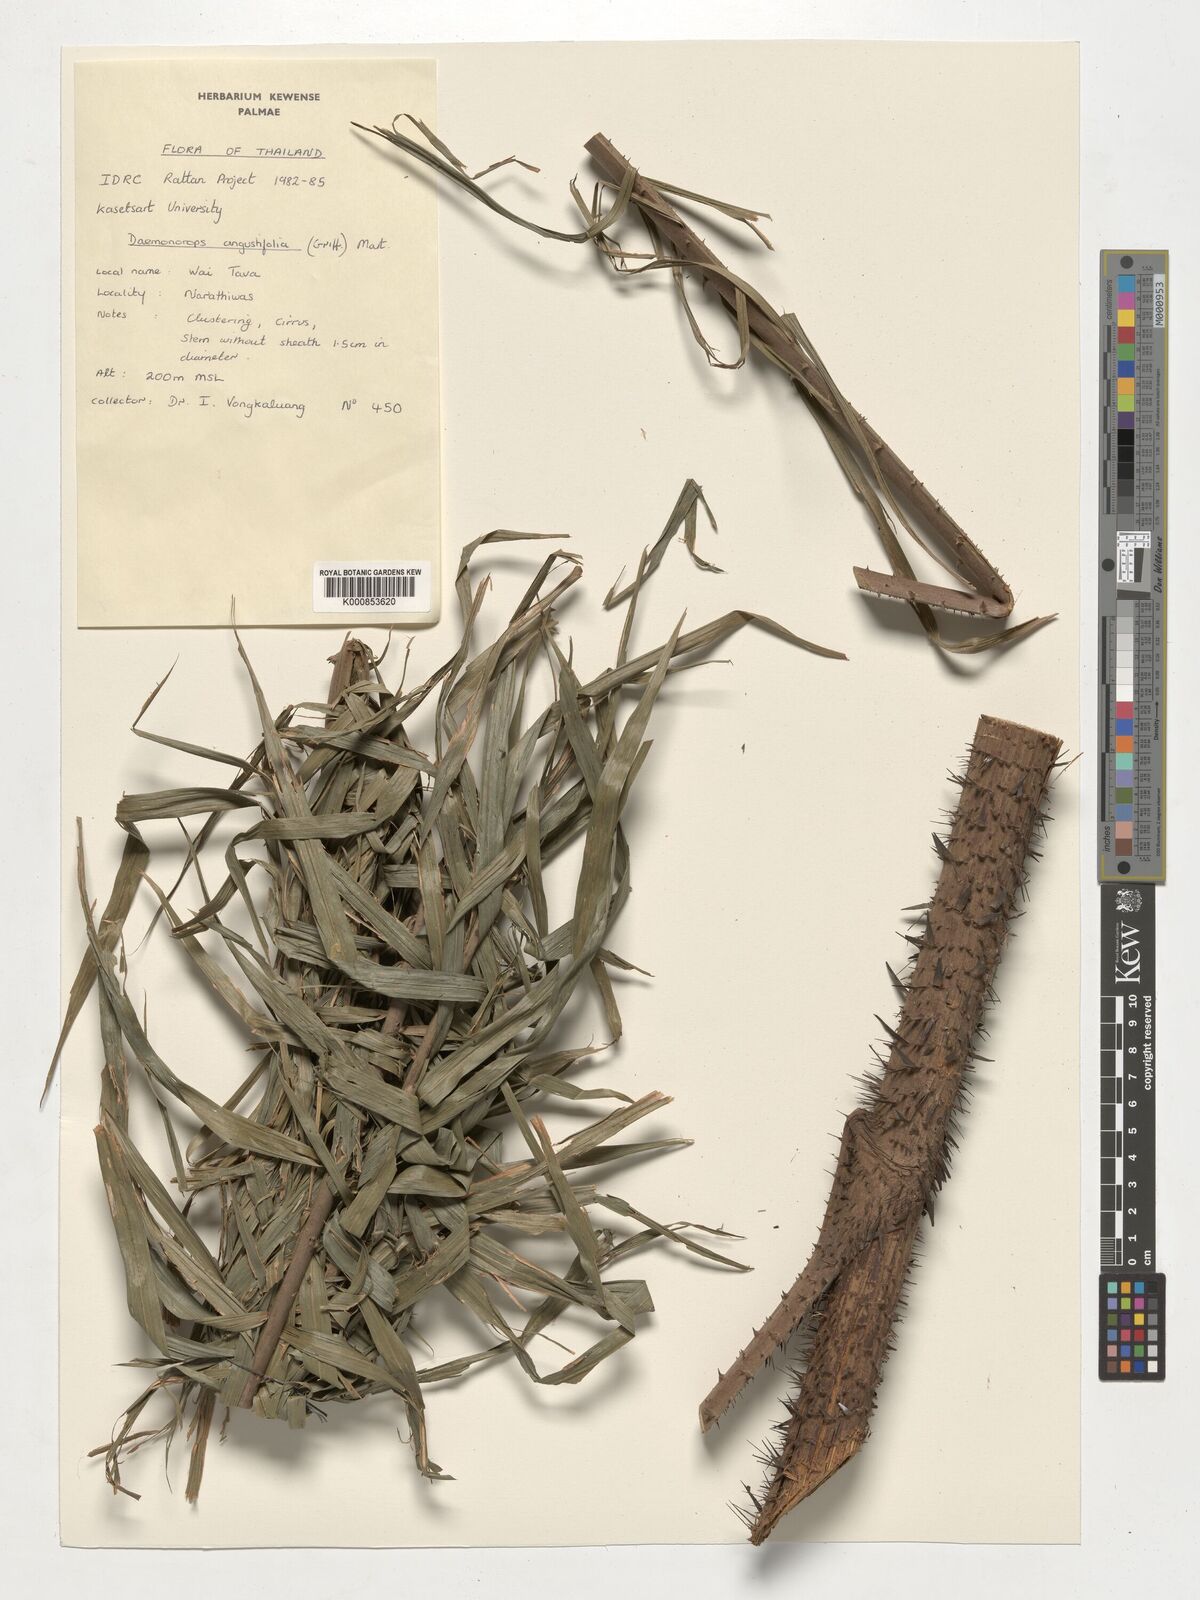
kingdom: Plantae
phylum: Tracheophyta
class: Liliopsida
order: Arecales
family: Arecaceae
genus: Calamus
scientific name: Calamus melanochaetes
